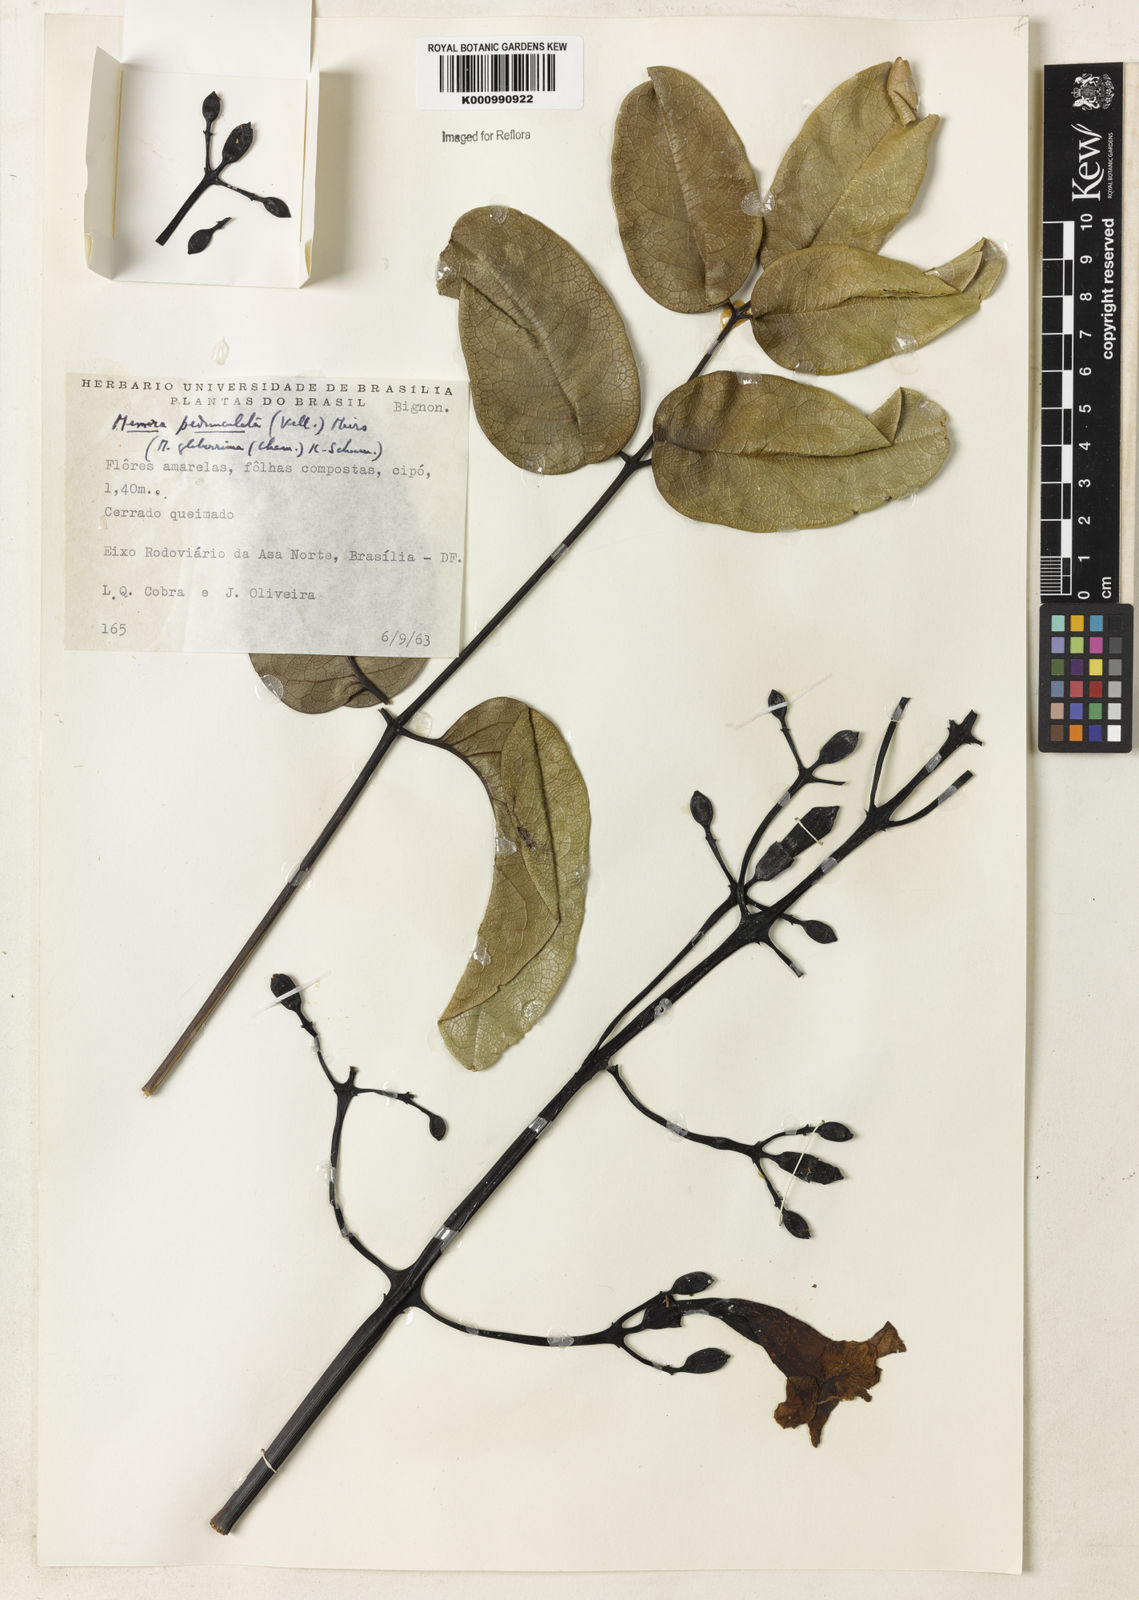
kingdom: Plantae
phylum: Tracheophyta
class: Magnoliopsida
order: Lamiales
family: Bignoniaceae
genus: Adenocalymma
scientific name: Adenocalymma pedunculatum
